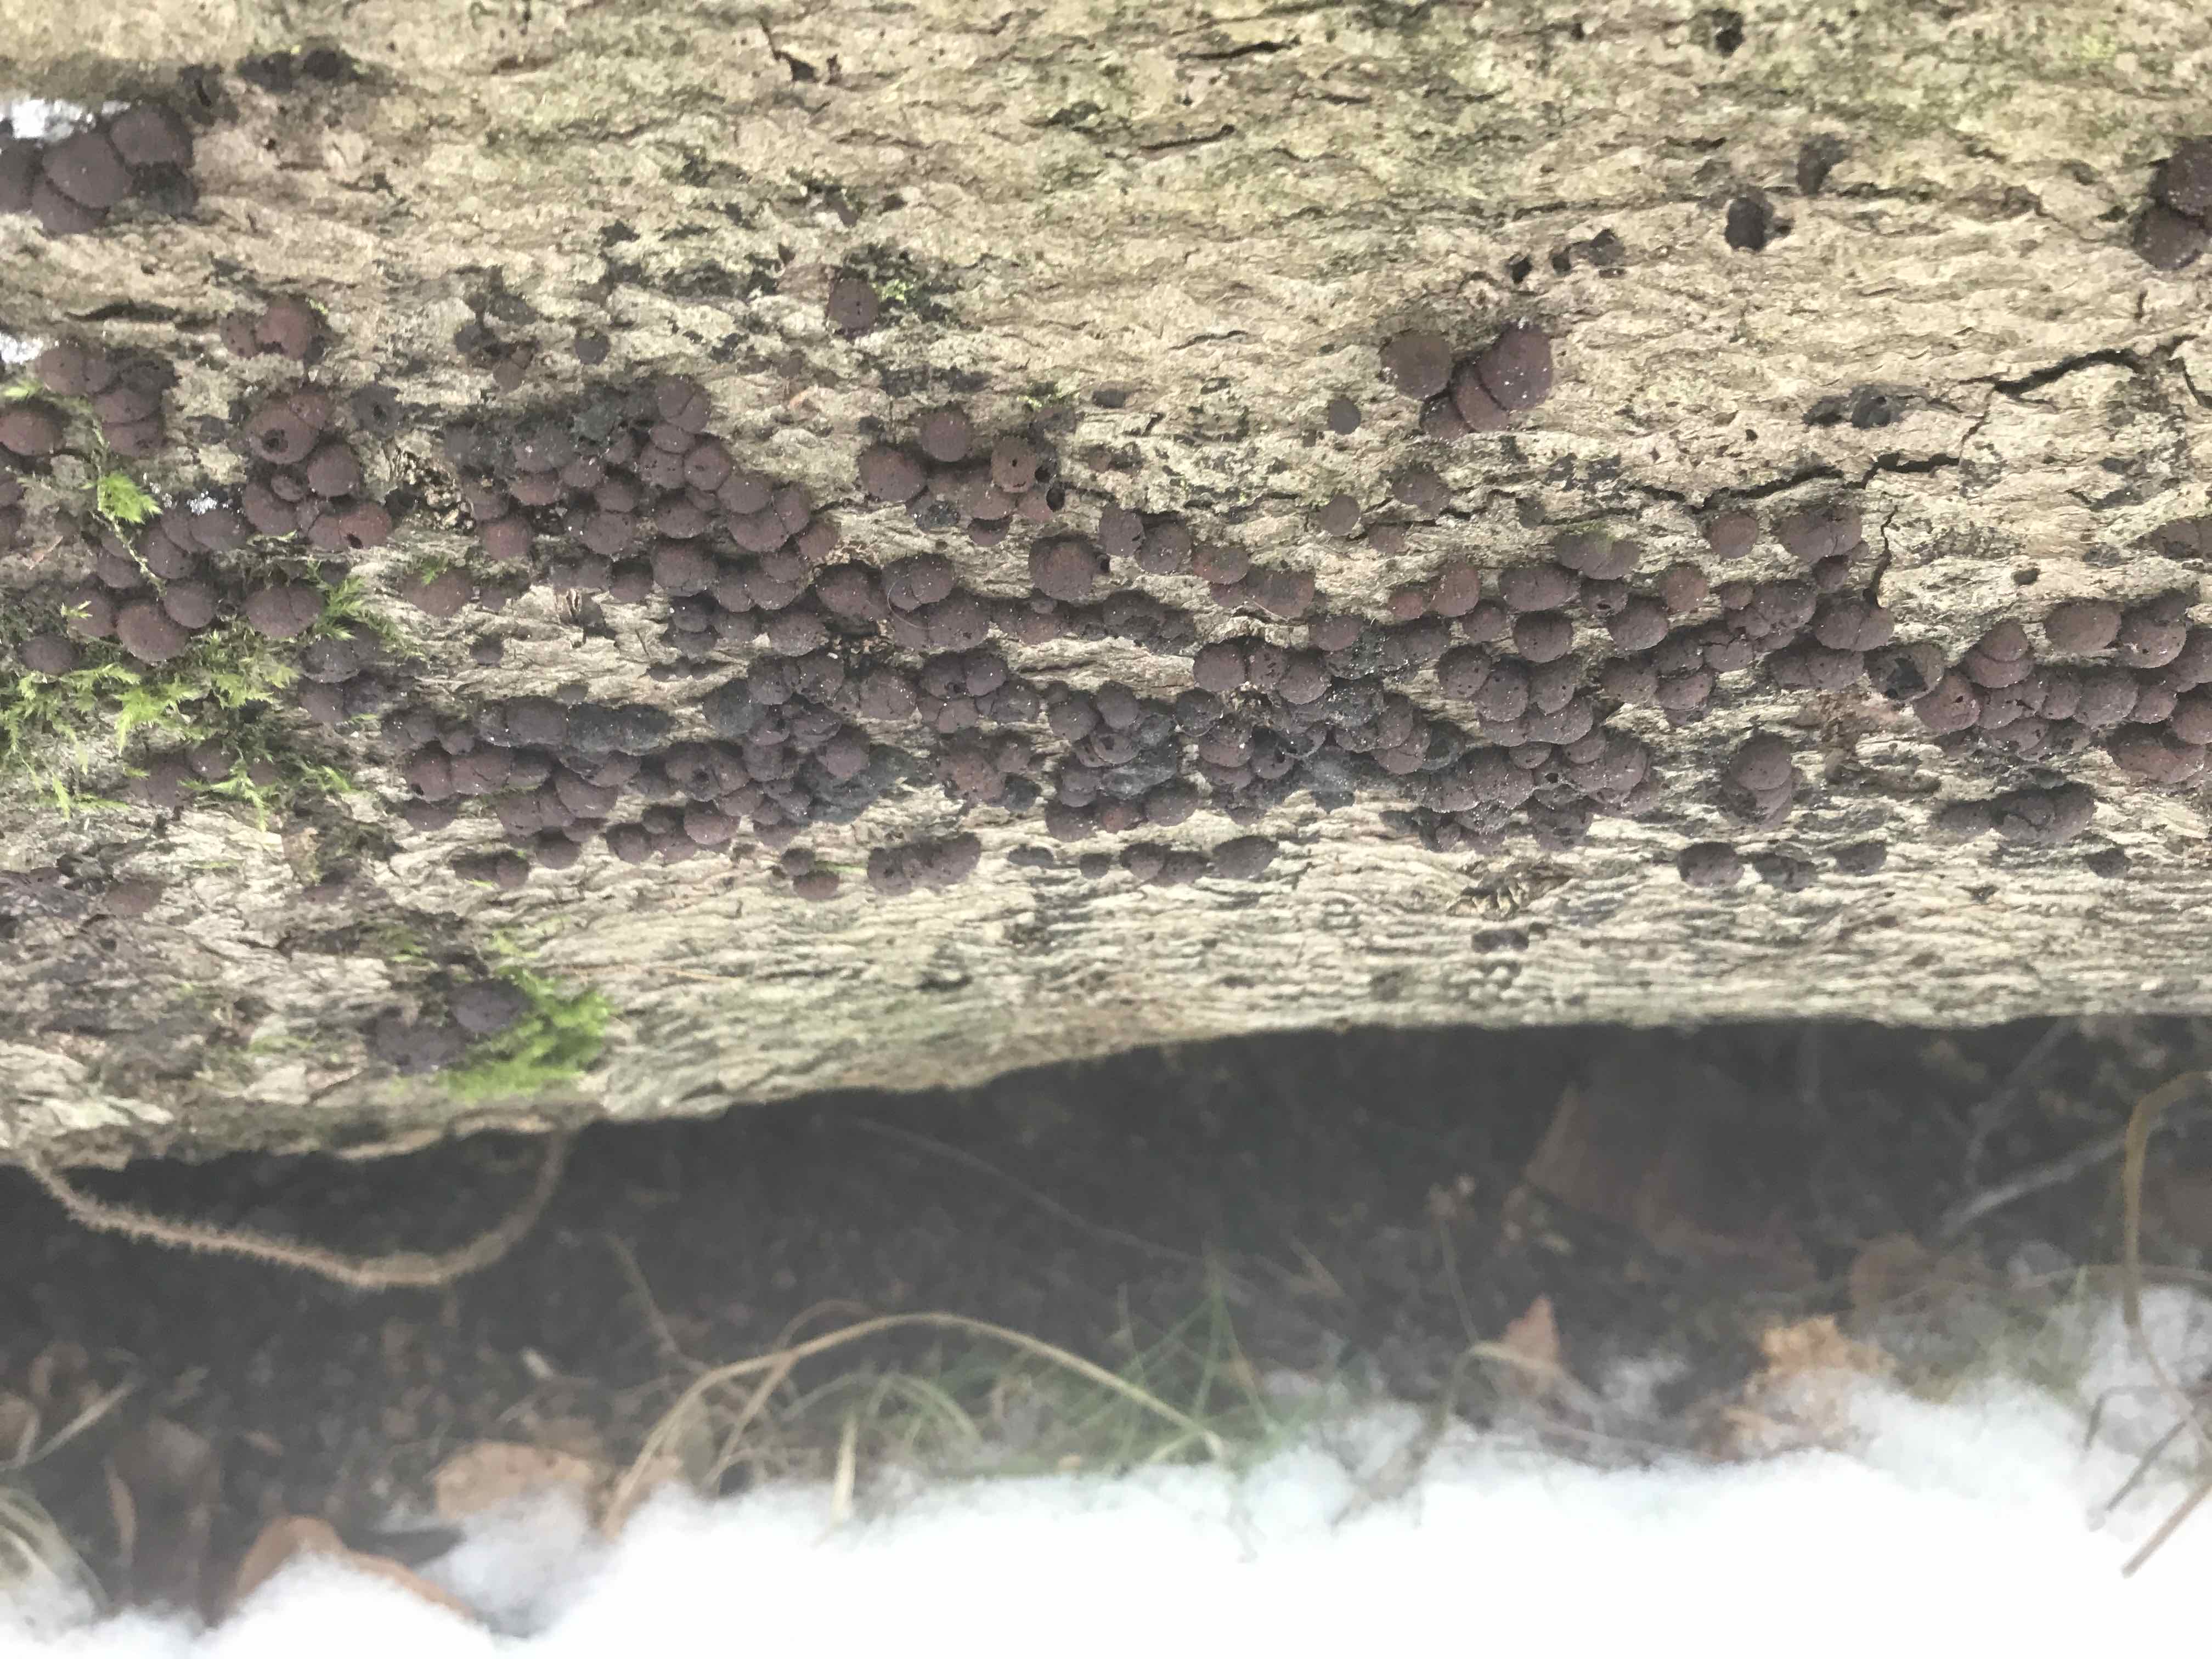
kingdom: Fungi
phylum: Ascomycota
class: Sordariomycetes
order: Xylariales
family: Hypoxylaceae
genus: Hypoxylon
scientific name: Hypoxylon fragiforme
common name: kuljordbær
